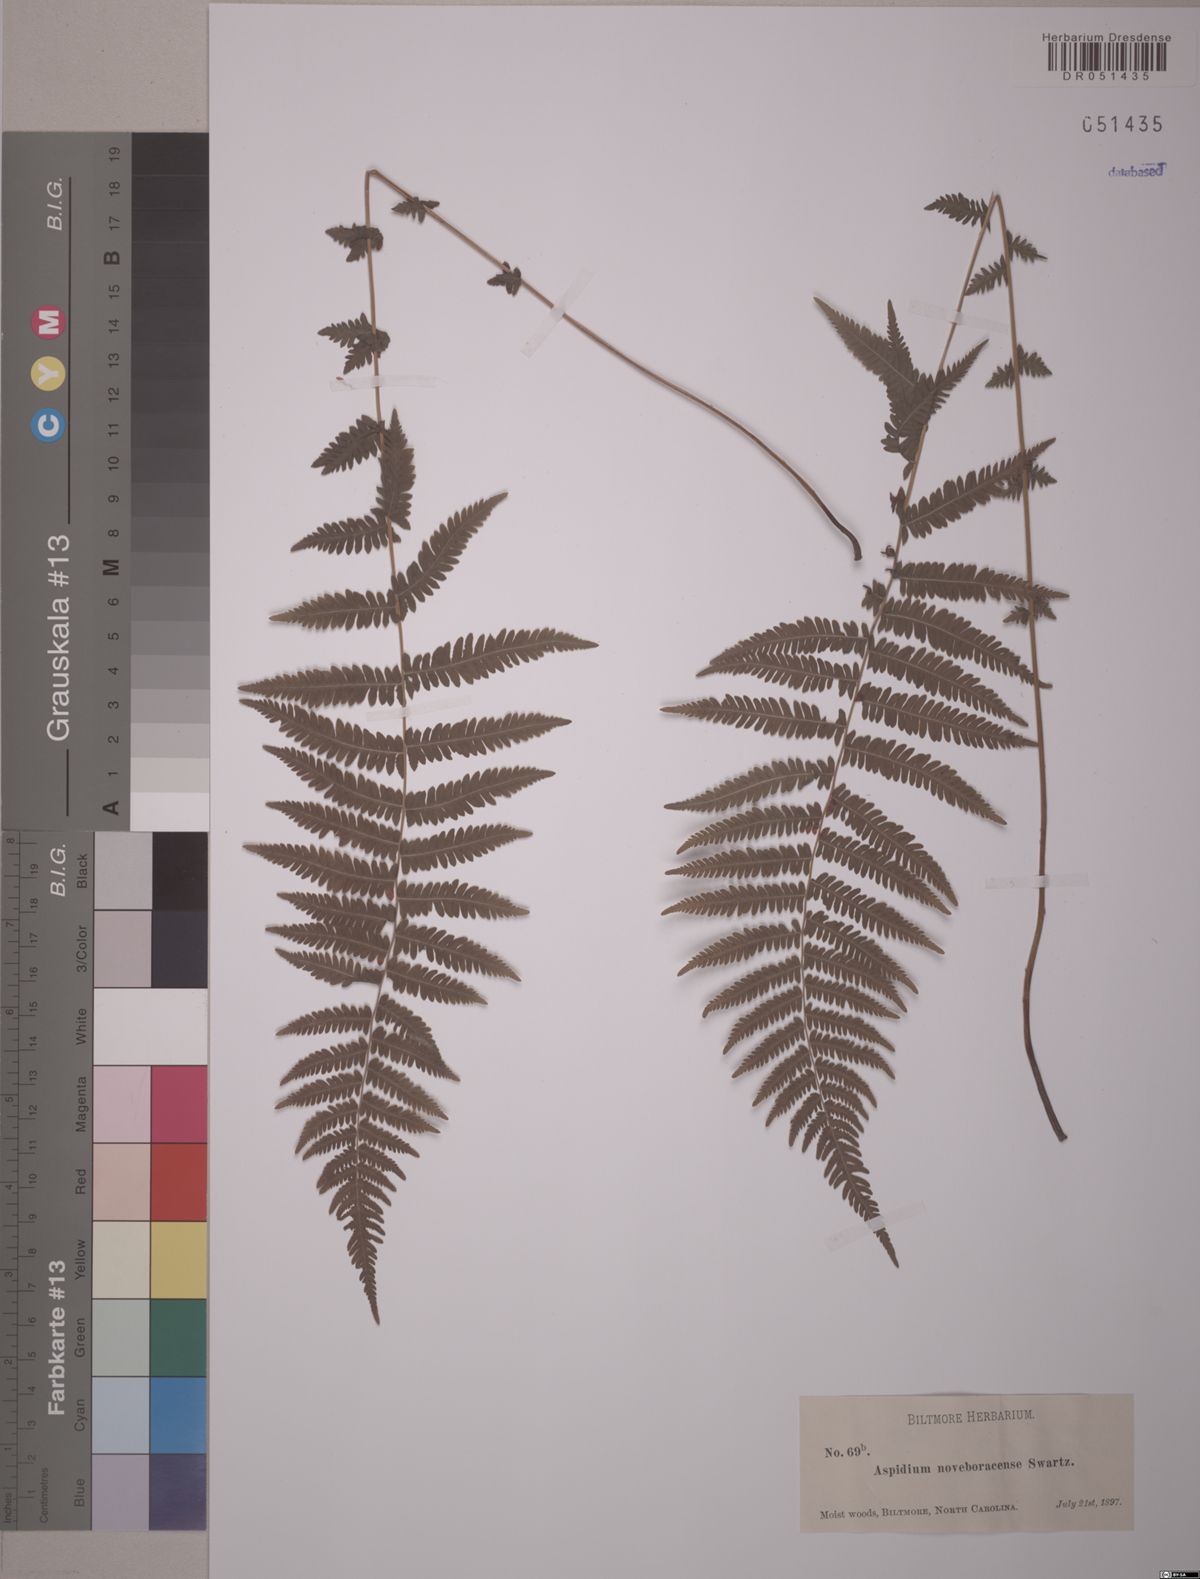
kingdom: Plantae
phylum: Tracheophyta
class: Polypodiopsida
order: Polypodiales
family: Thelypteridaceae
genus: Amauropelta
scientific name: Amauropelta noveboracensis
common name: New york fern
